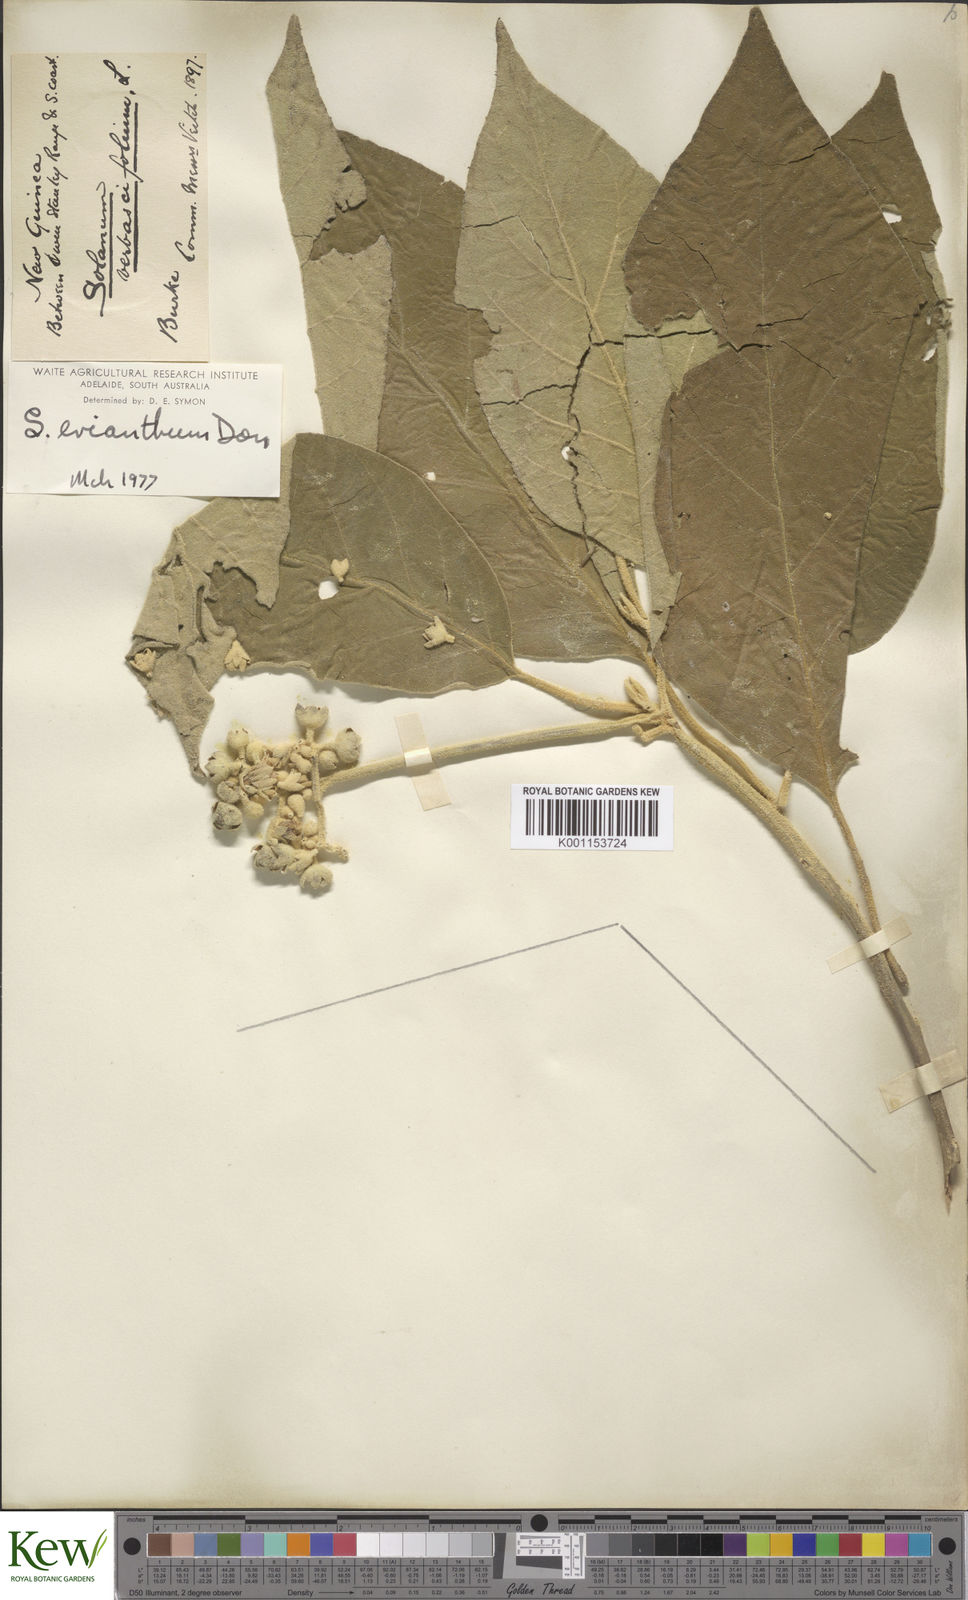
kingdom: Plantae
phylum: Tracheophyta
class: Magnoliopsida
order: Solanales
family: Solanaceae
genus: Solanum
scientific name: Solanum erianthum
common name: Tobacco-tree
